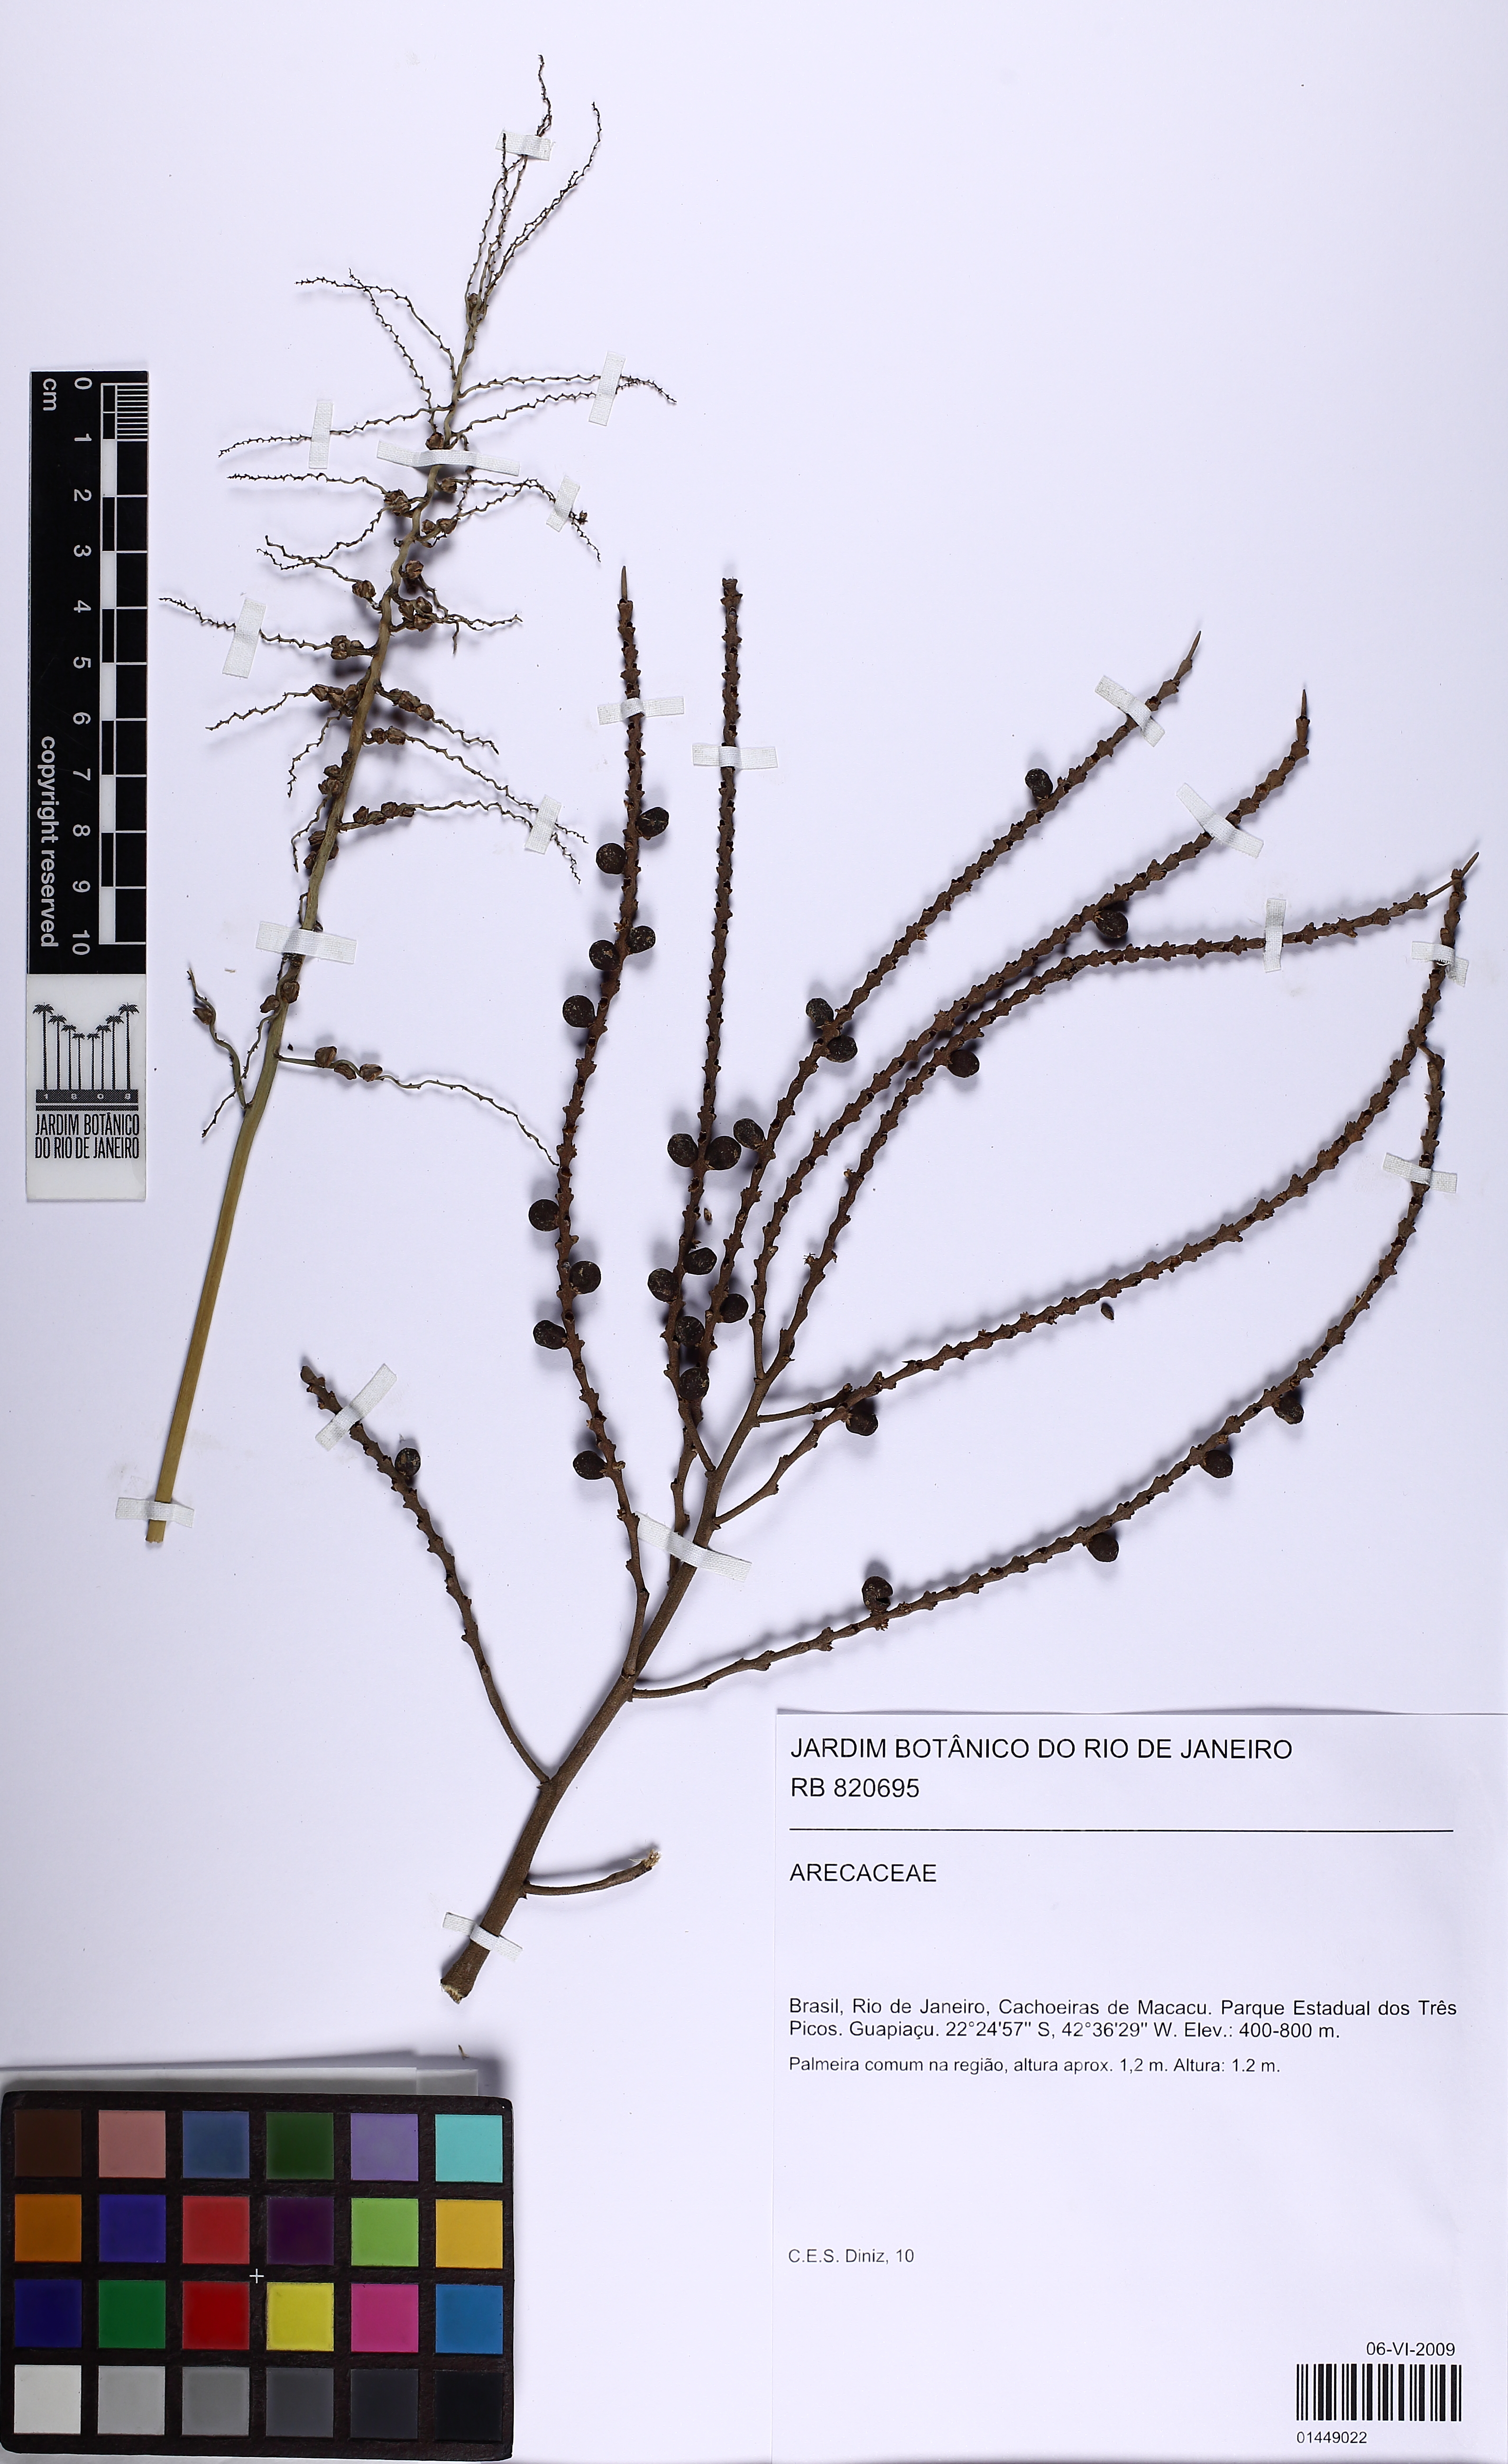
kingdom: Plantae
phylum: Tracheophyta
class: Liliopsida
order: Arecales
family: Arecaceae
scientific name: Arecaceae
